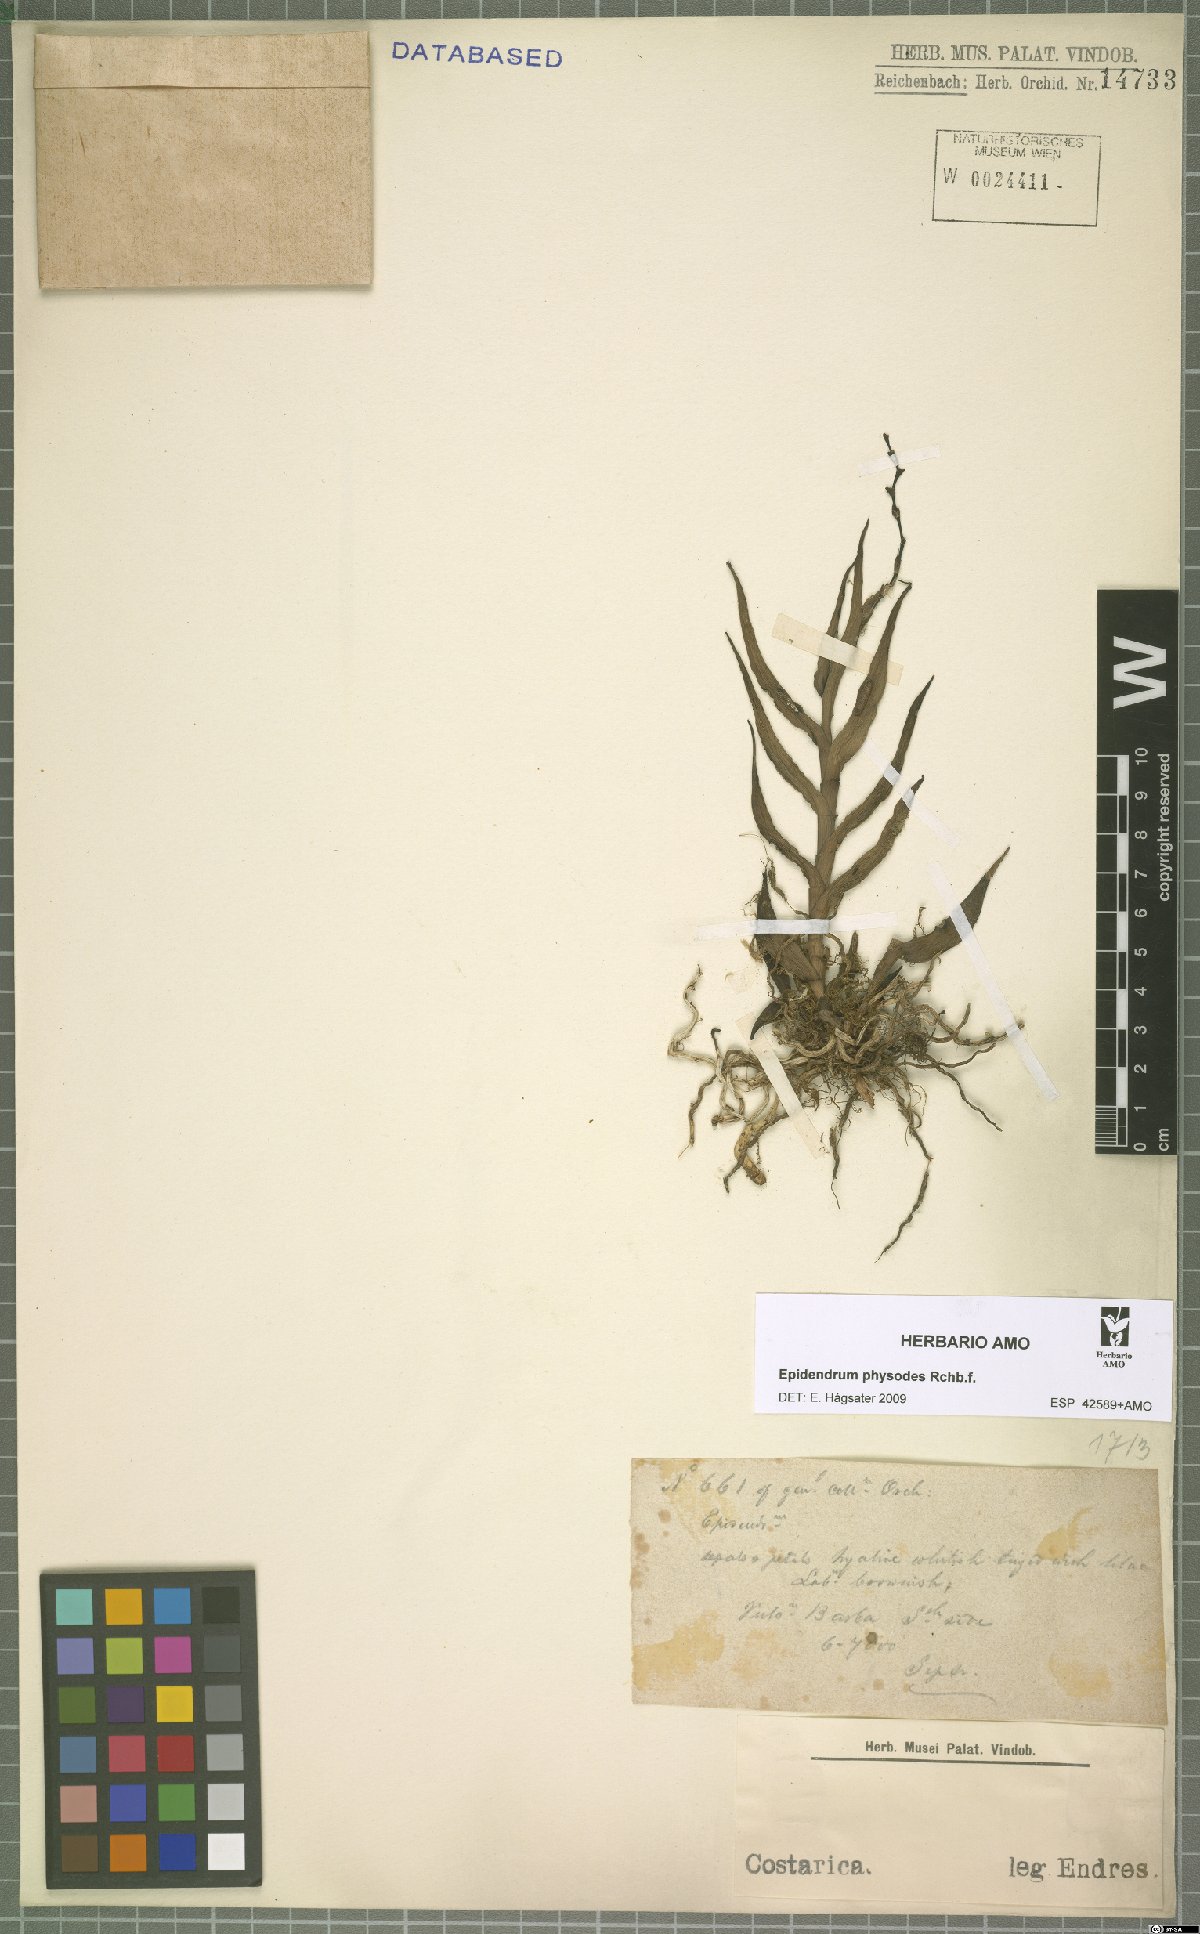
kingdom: Plantae
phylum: Tracheophyta
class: Liliopsida
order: Asparagales
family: Orchidaceae
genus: Epidendrum
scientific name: Epidendrum physodes
